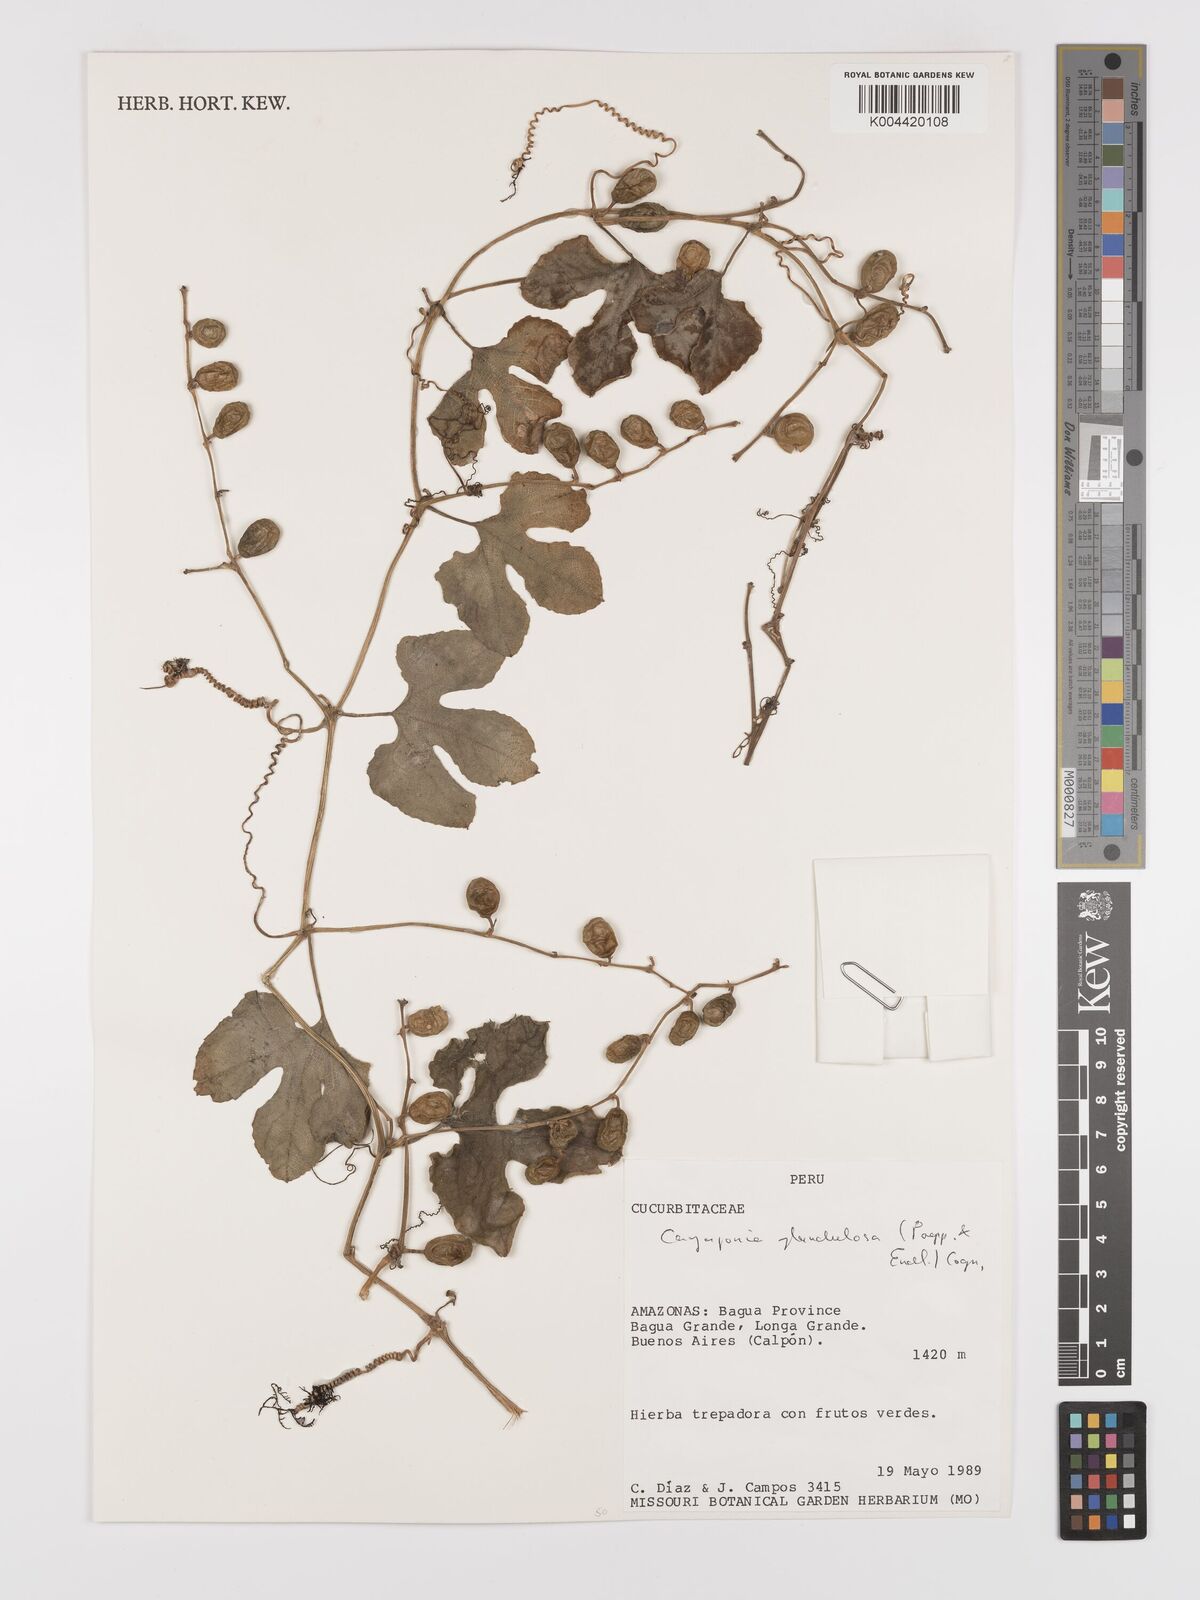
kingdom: Plantae
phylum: Tracheophyta
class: Magnoliopsida
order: Cucurbitales
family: Cucurbitaceae
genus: Cayaponia
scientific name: Cayaponia glandulosa
